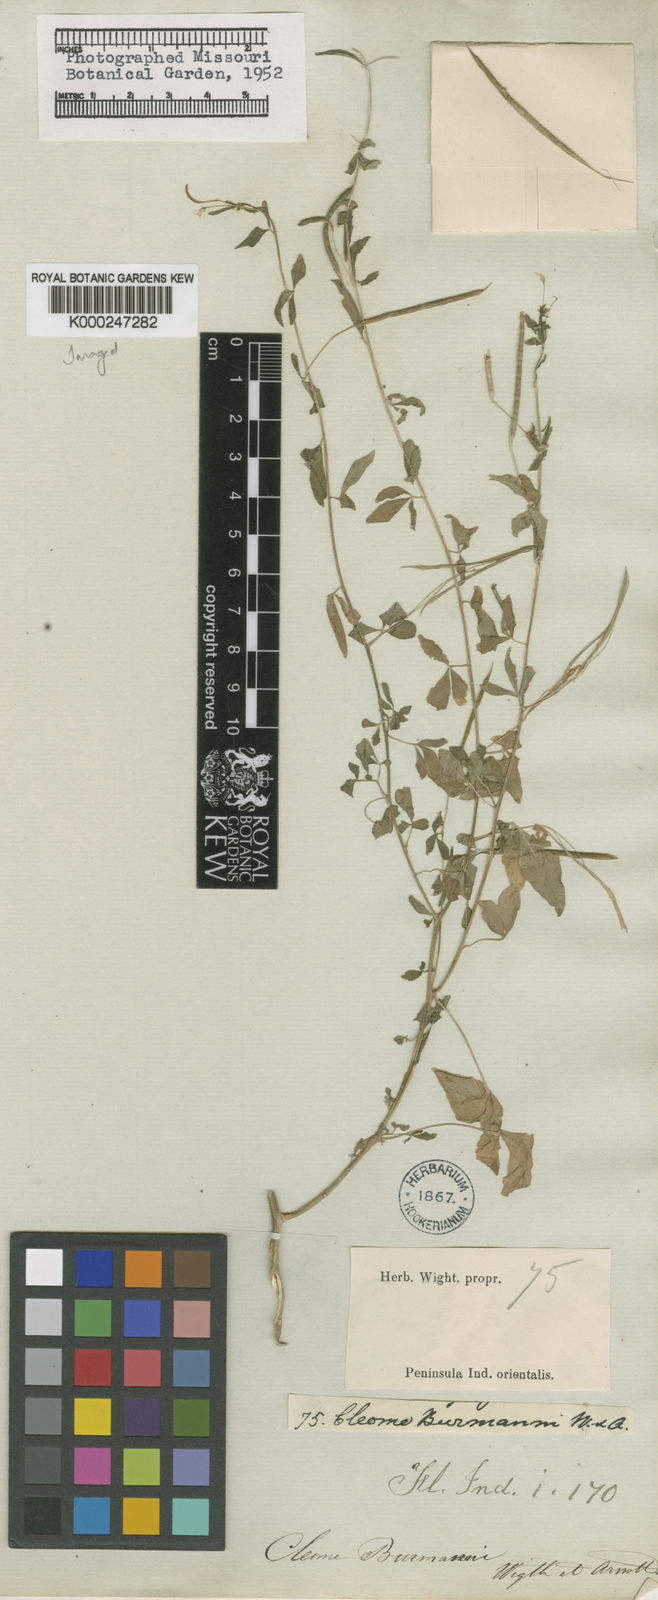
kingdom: Plantae
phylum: Tracheophyta
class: Magnoliopsida
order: Brassicales
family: Cleomaceae
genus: Sieruela
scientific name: Sieruela rutidosperma
